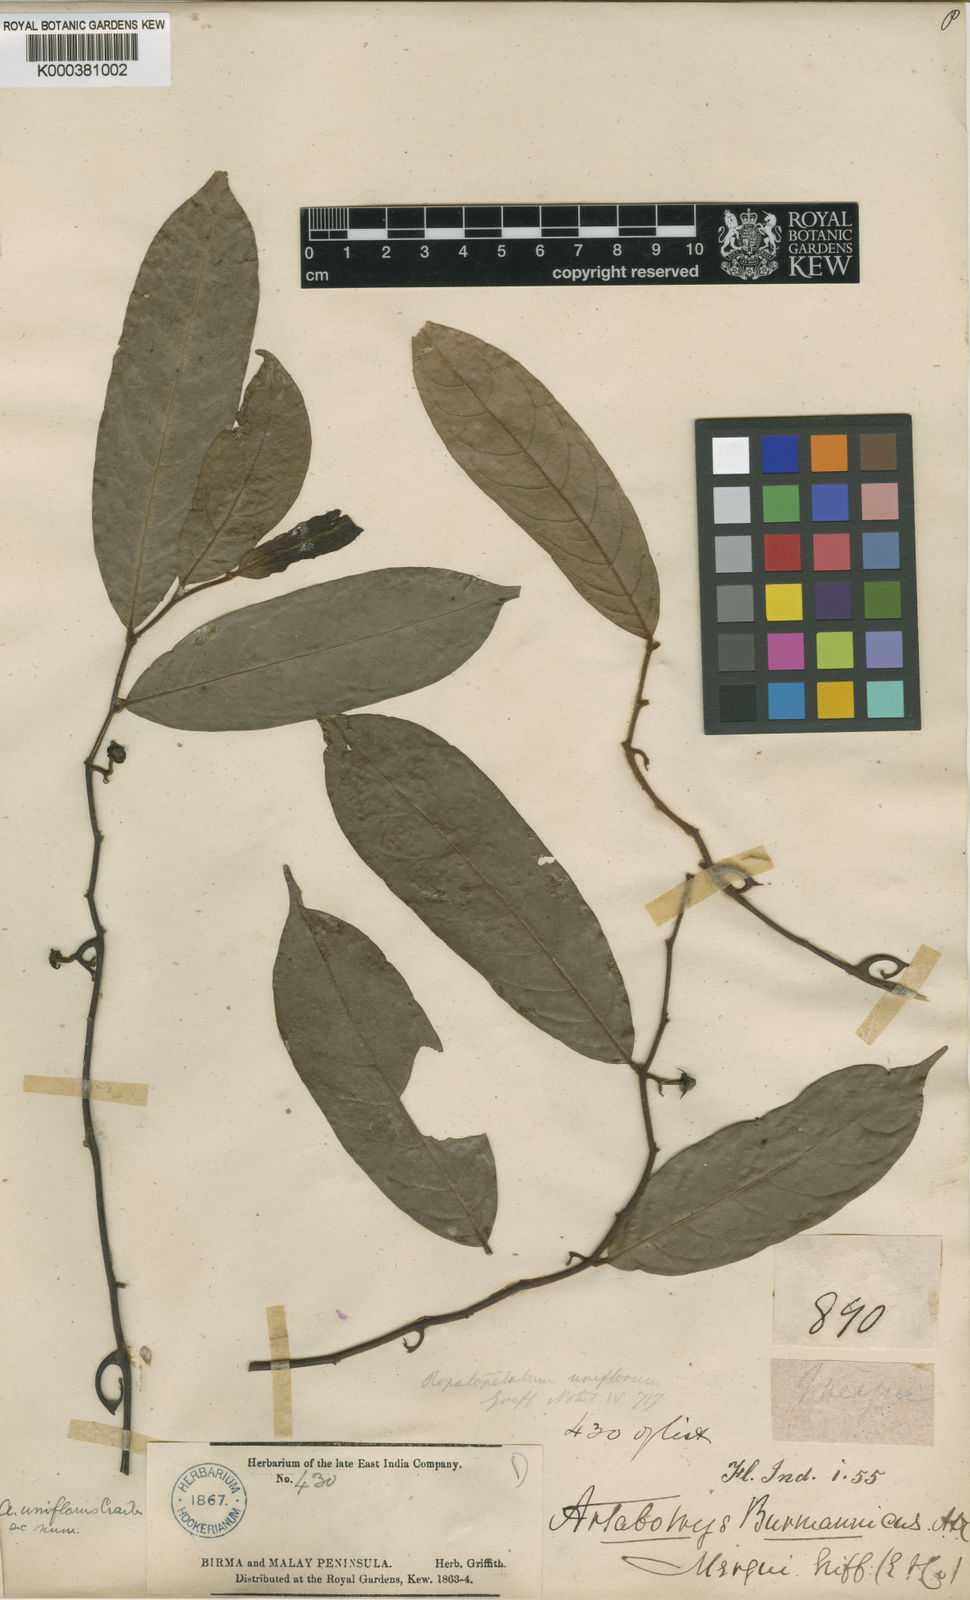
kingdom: Plantae
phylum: Tracheophyta
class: Magnoliopsida
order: Magnoliales
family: Annonaceae
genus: Artabotrys
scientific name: Artabotrys uniflorus
